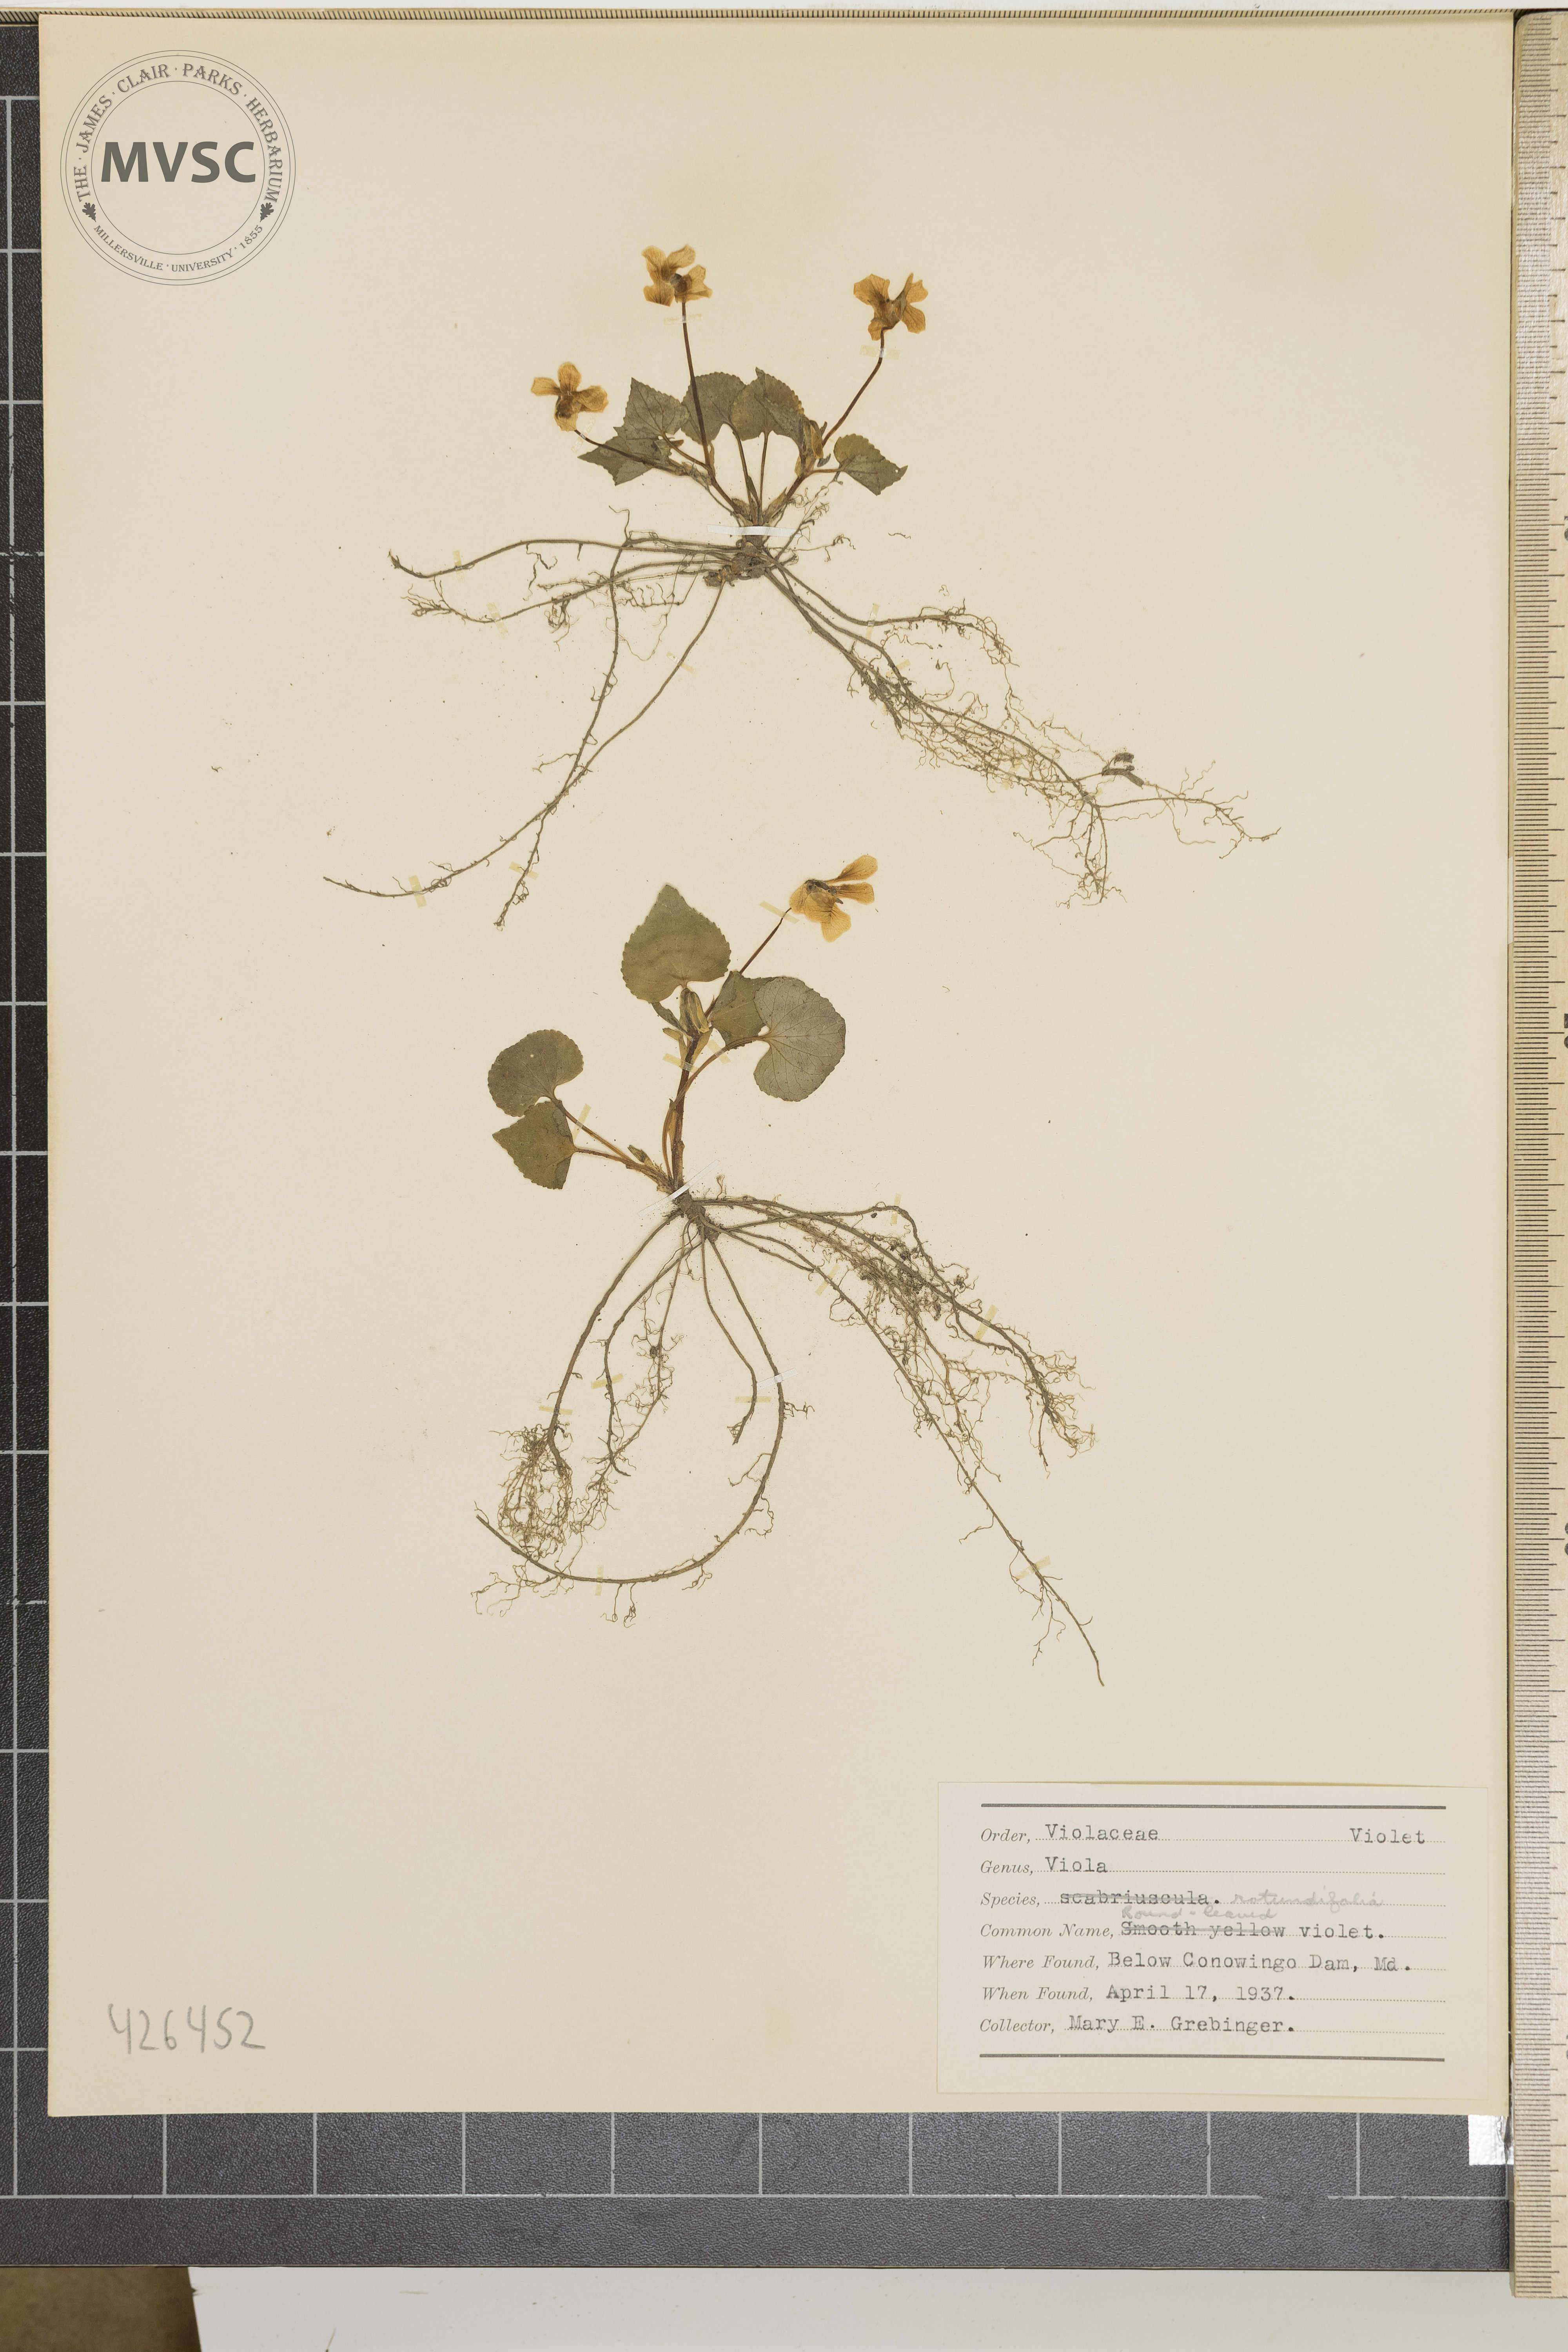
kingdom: Plantae
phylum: Tracheophyta
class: Magnoliopsida
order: Malpighiales
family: Violaceae
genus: Viola
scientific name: Viola rotundifolia
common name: Round-leaved violet
